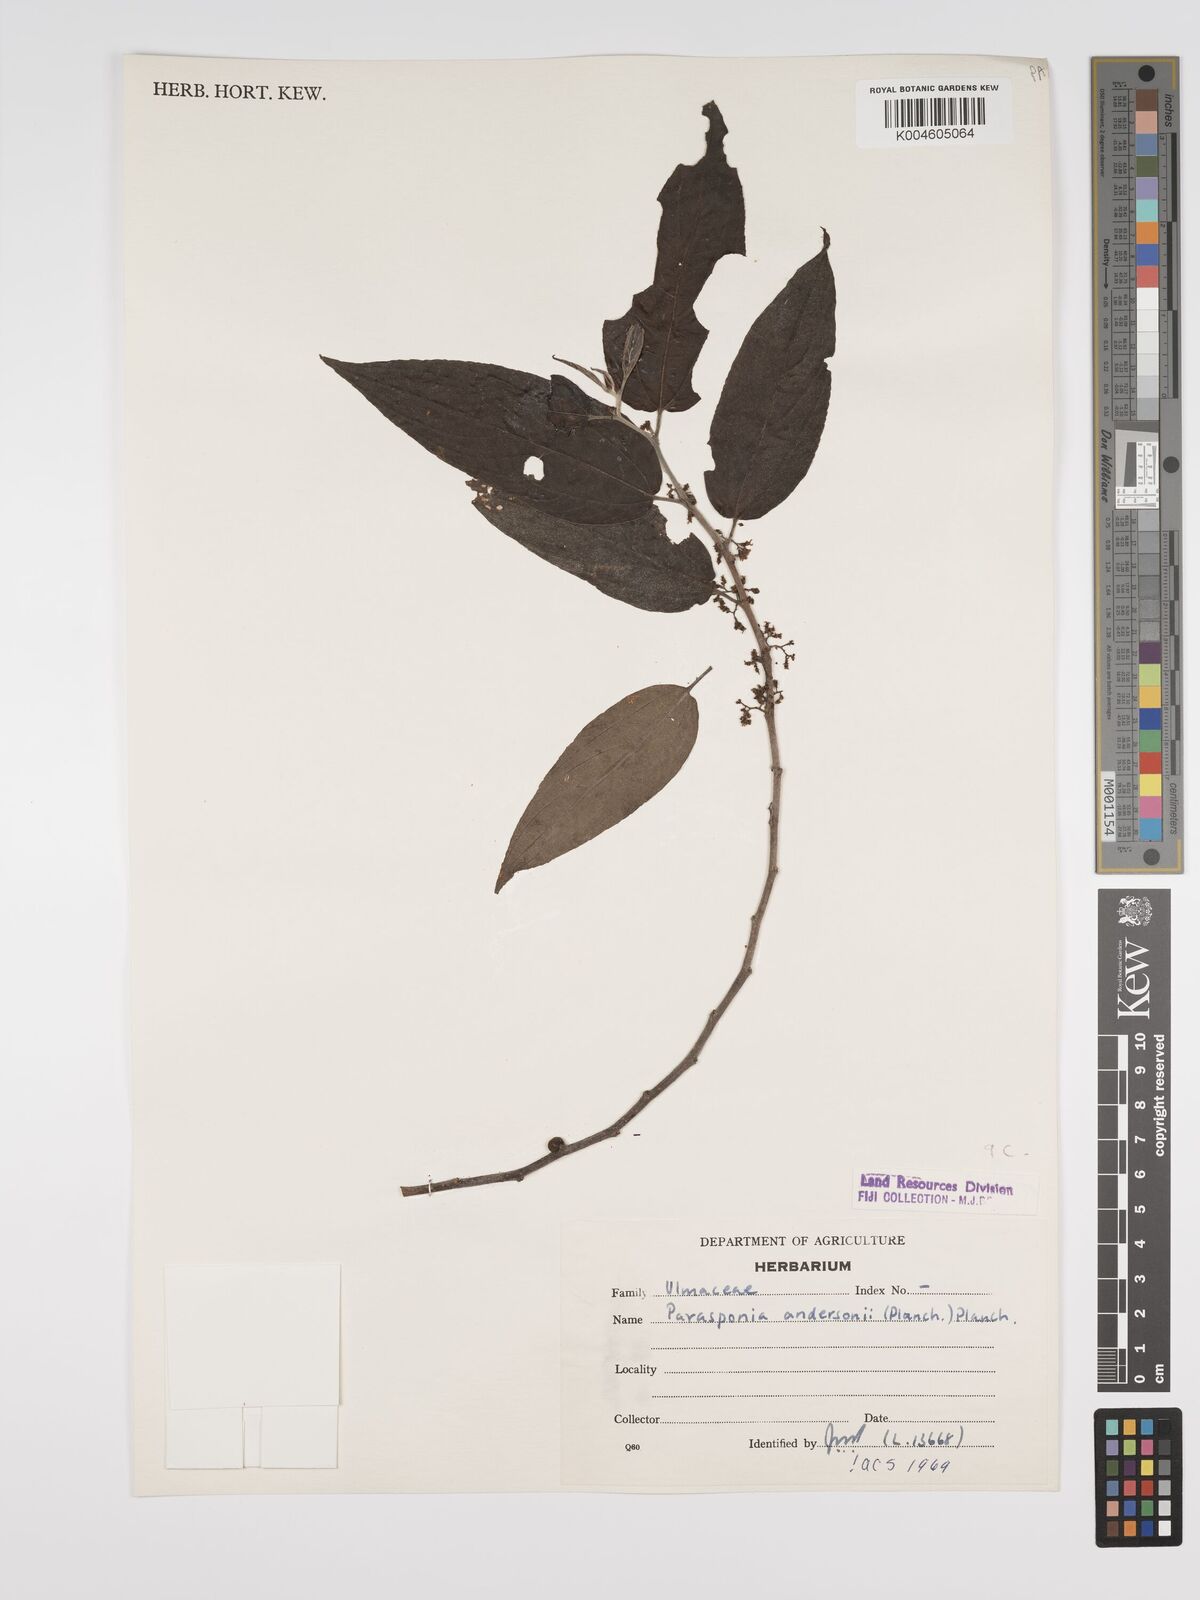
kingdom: Plantae
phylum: Tracheophyta
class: Magnoliopsida
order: Rosales
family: Cannabaceae
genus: Trema
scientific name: Trema andersonii
